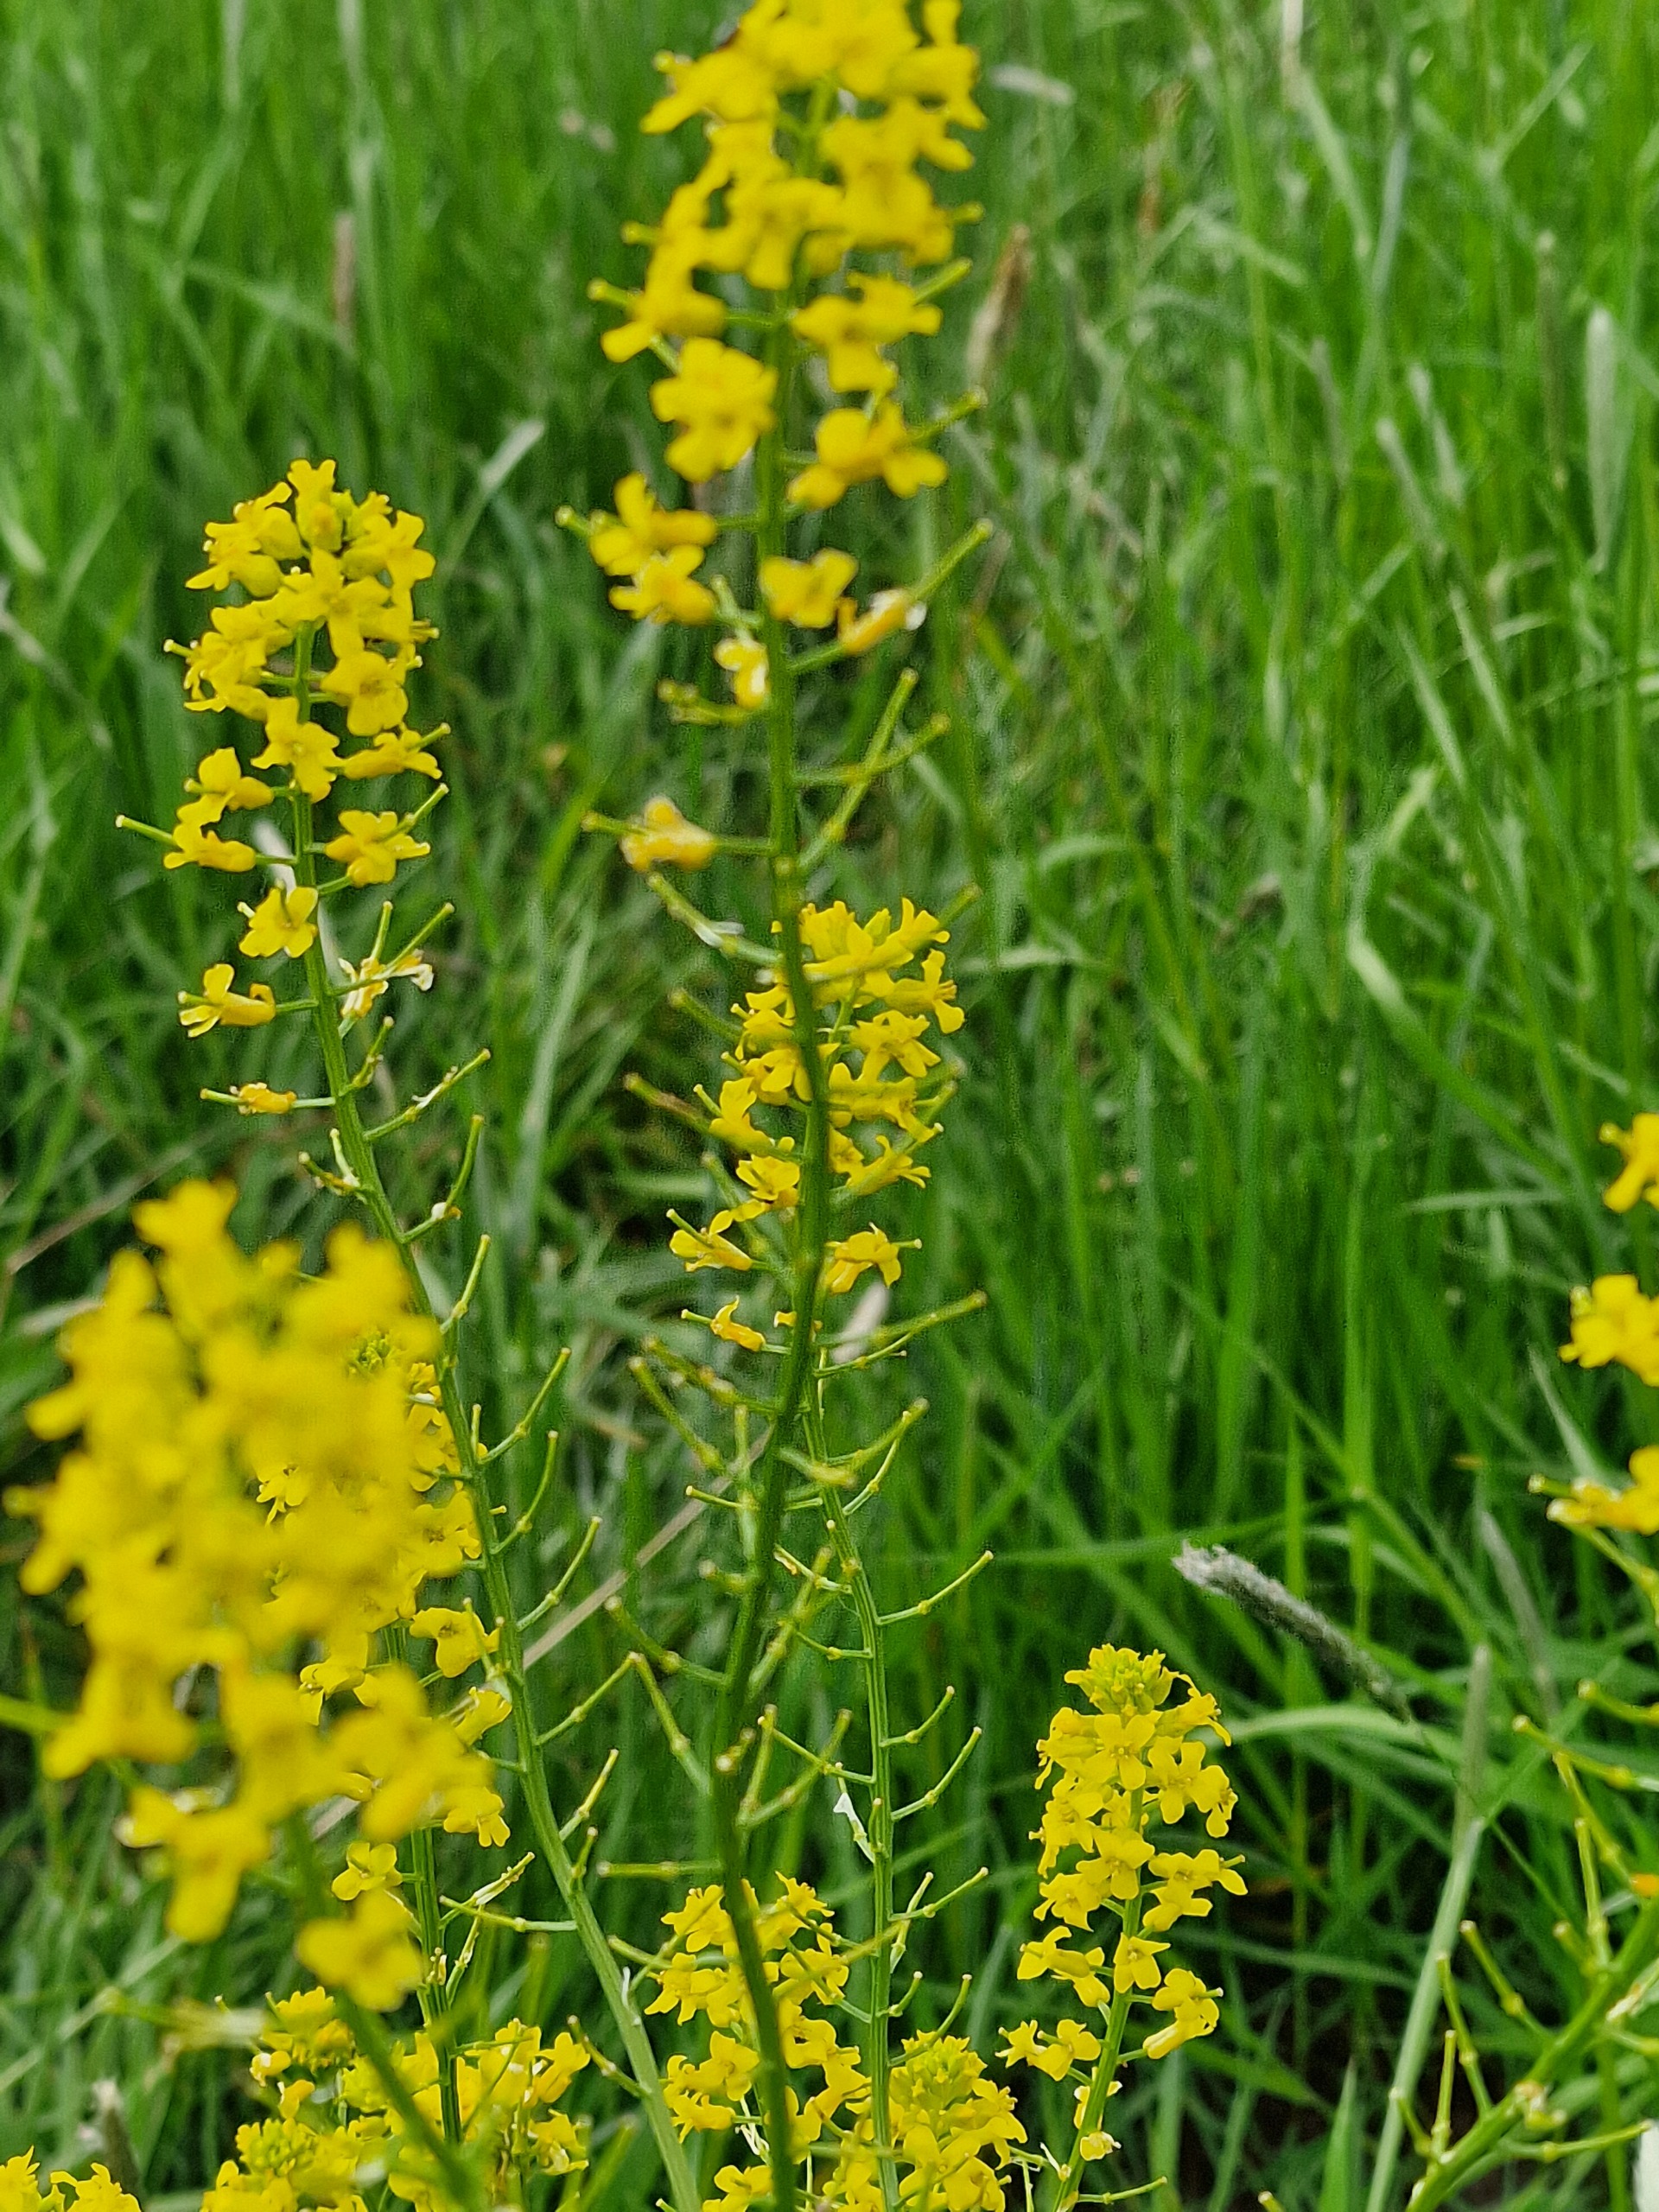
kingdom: Plantae
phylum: Tracheophyta
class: Magnoliopsida
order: Brassicales
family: Brassicaceae
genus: Barbarea
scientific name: Barbarea vulgaris
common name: Udspærret vinterkarse
